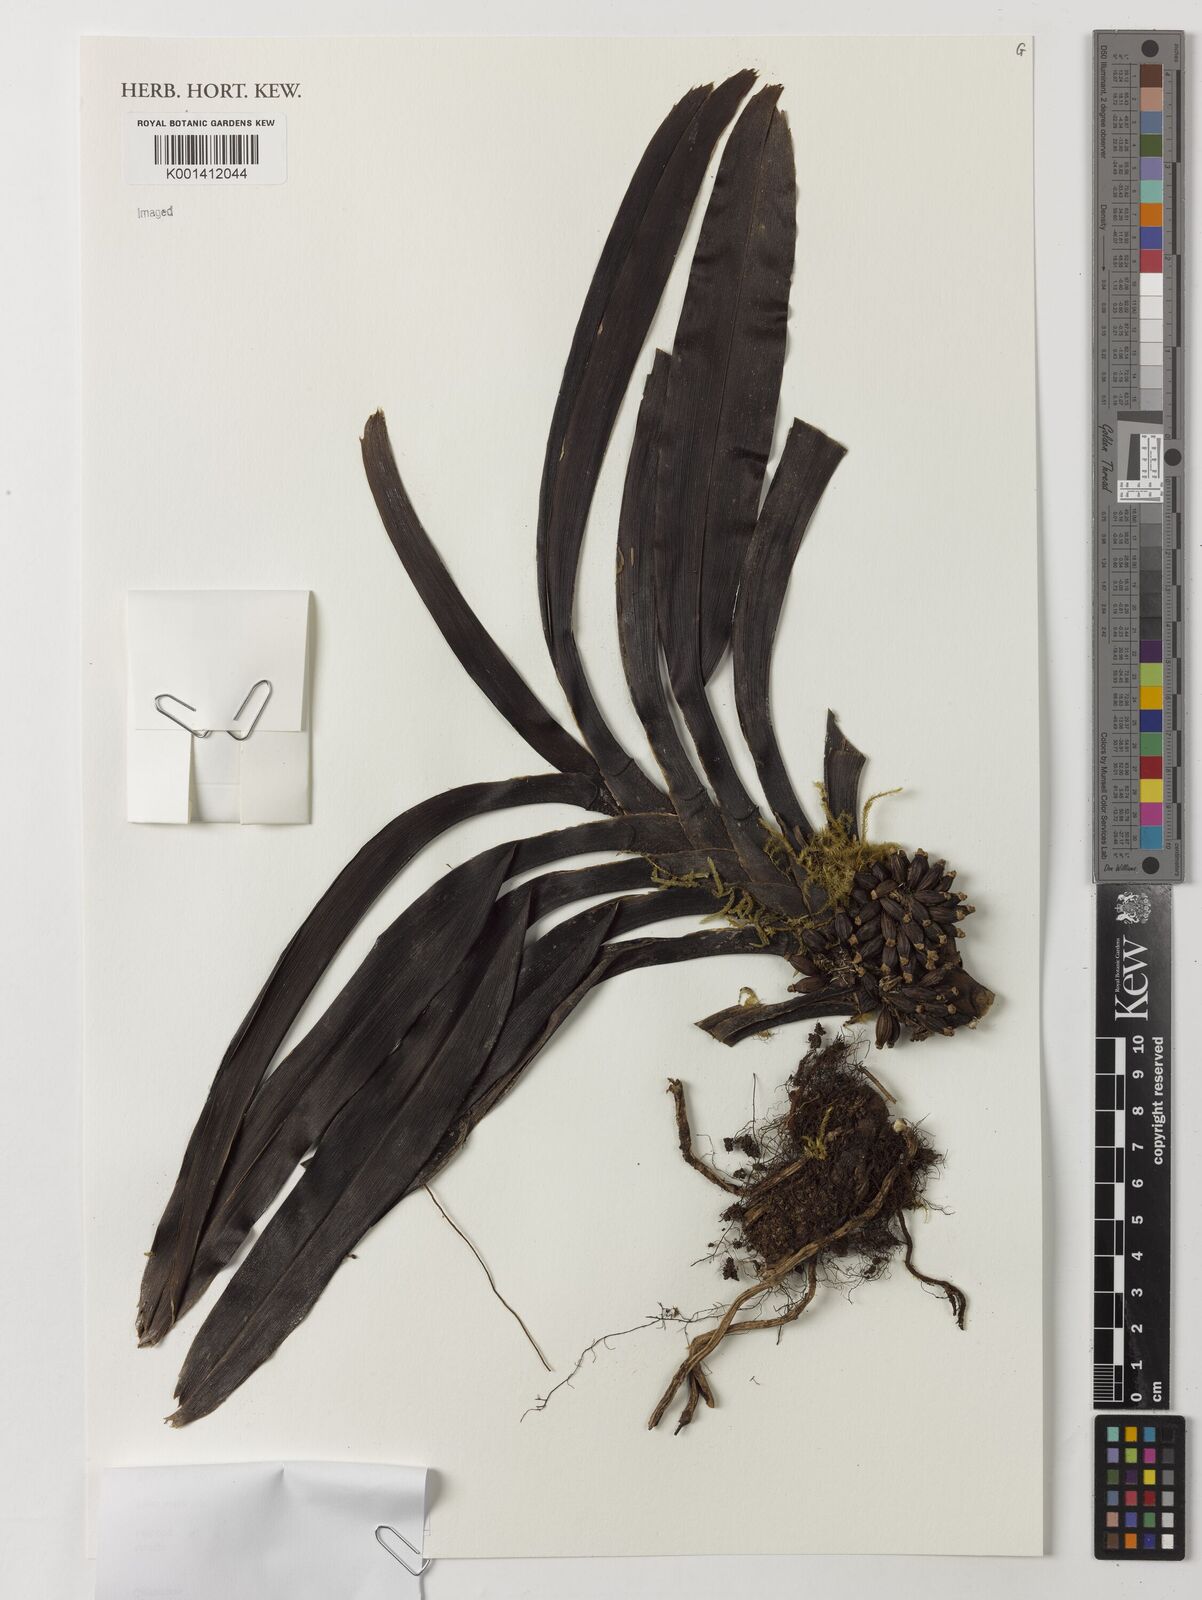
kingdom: Plantae
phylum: Tracheophyta
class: Liliopsida
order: Asparagales
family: Orchidaceae
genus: Ancistrorhynchus
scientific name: Ancistrorhynchus capitatus
